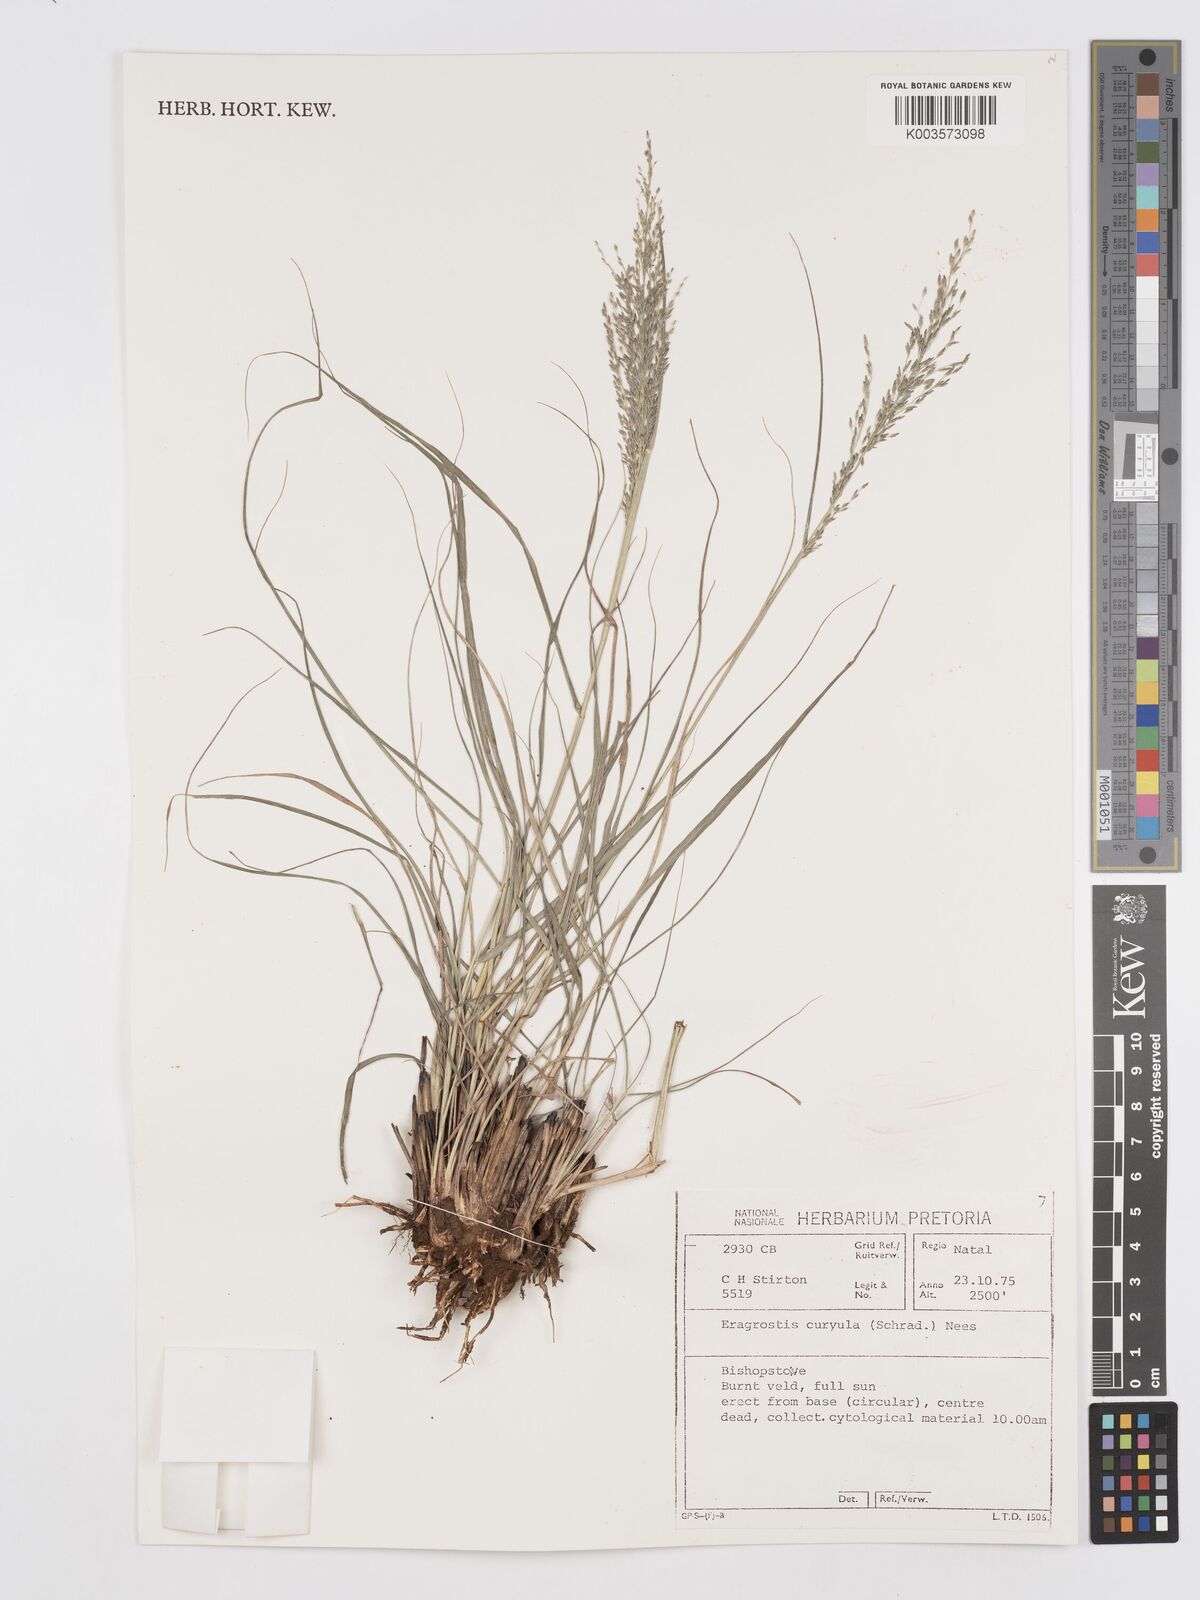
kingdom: Plantae
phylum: Tracheophyta
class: Liliopsida
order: Poales
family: Poaceae
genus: Eragrostis
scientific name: Eragrostis curvula
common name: African love-grass
